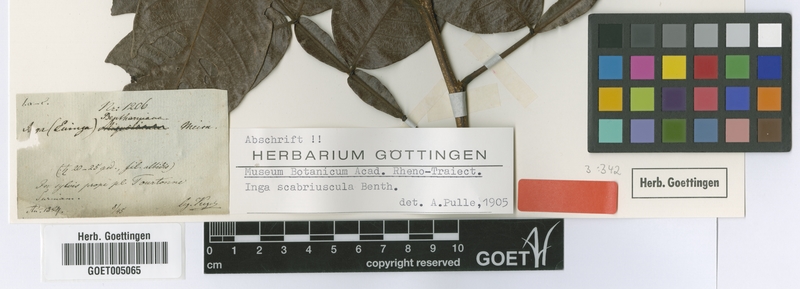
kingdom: Plantae
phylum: Tracheophyta
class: Magnoliopsida
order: Fabales
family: Fabaceae
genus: Inga
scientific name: Inga edulis
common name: Ice cream bean
